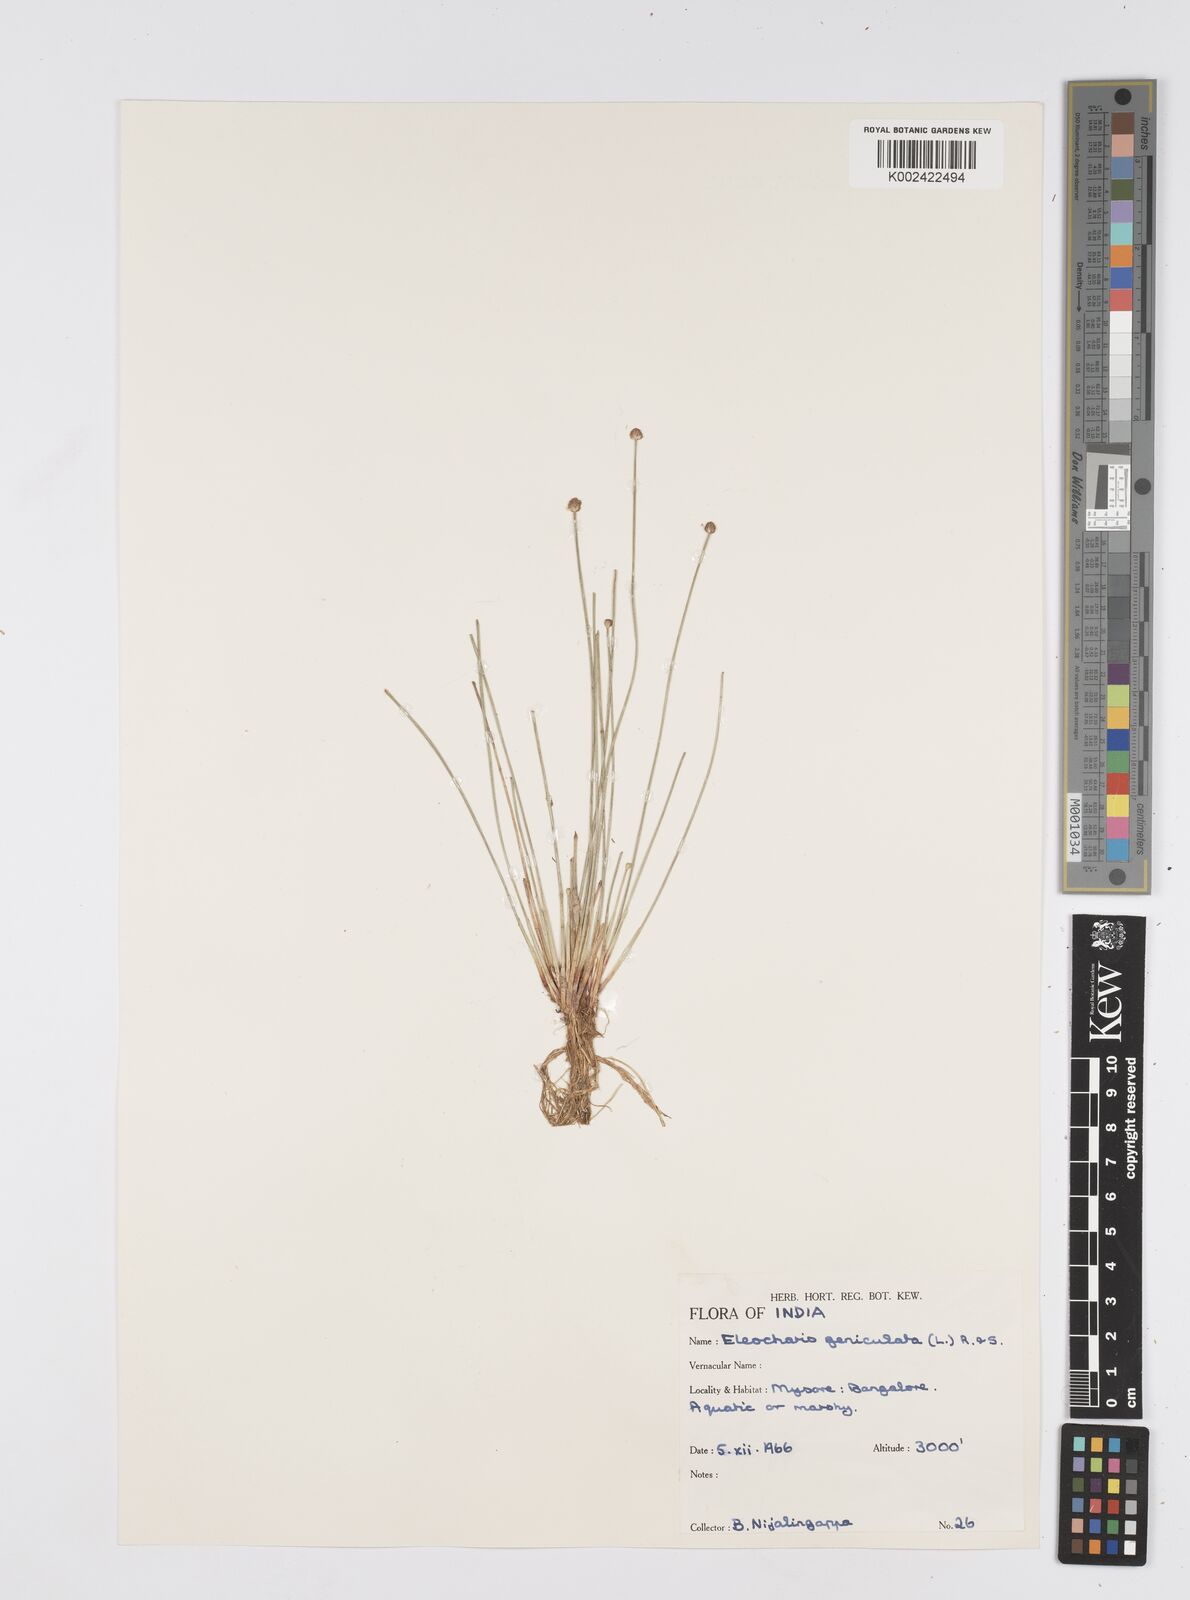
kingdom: Plantae
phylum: Tracheophyta
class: Liliopsida
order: Poales
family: Cyperaceae
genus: Eleocharis
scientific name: Eleocharis geniculata
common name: Canada spikesedge
